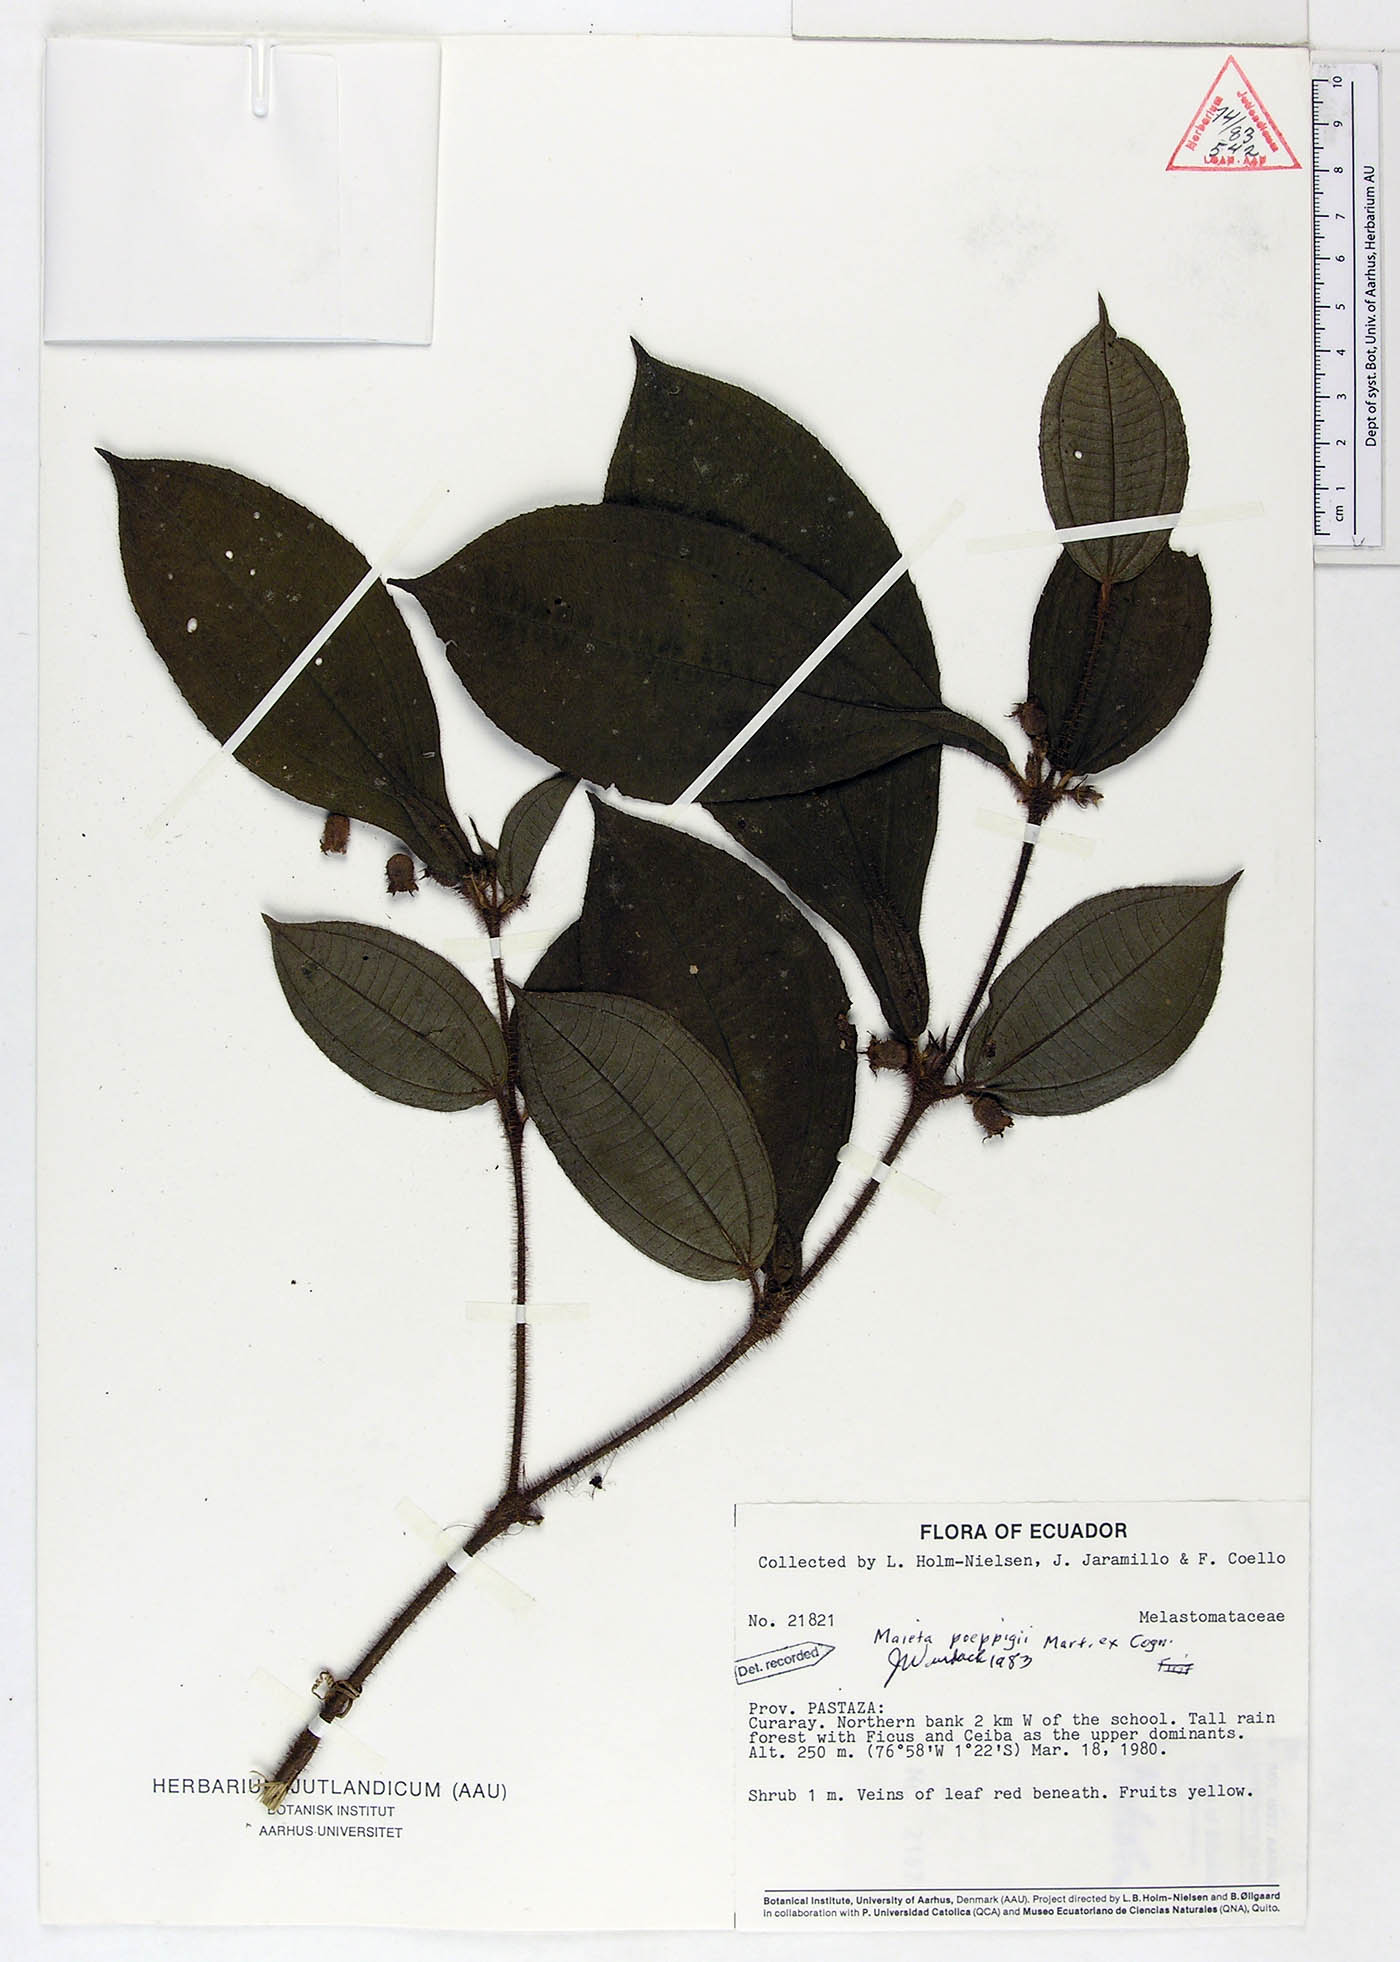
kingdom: Plantae
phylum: Tracheophyta
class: Magnoliopsida
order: Myrtales
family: Melastomataceae
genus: Miconia
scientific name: Miconia alternidomatia
